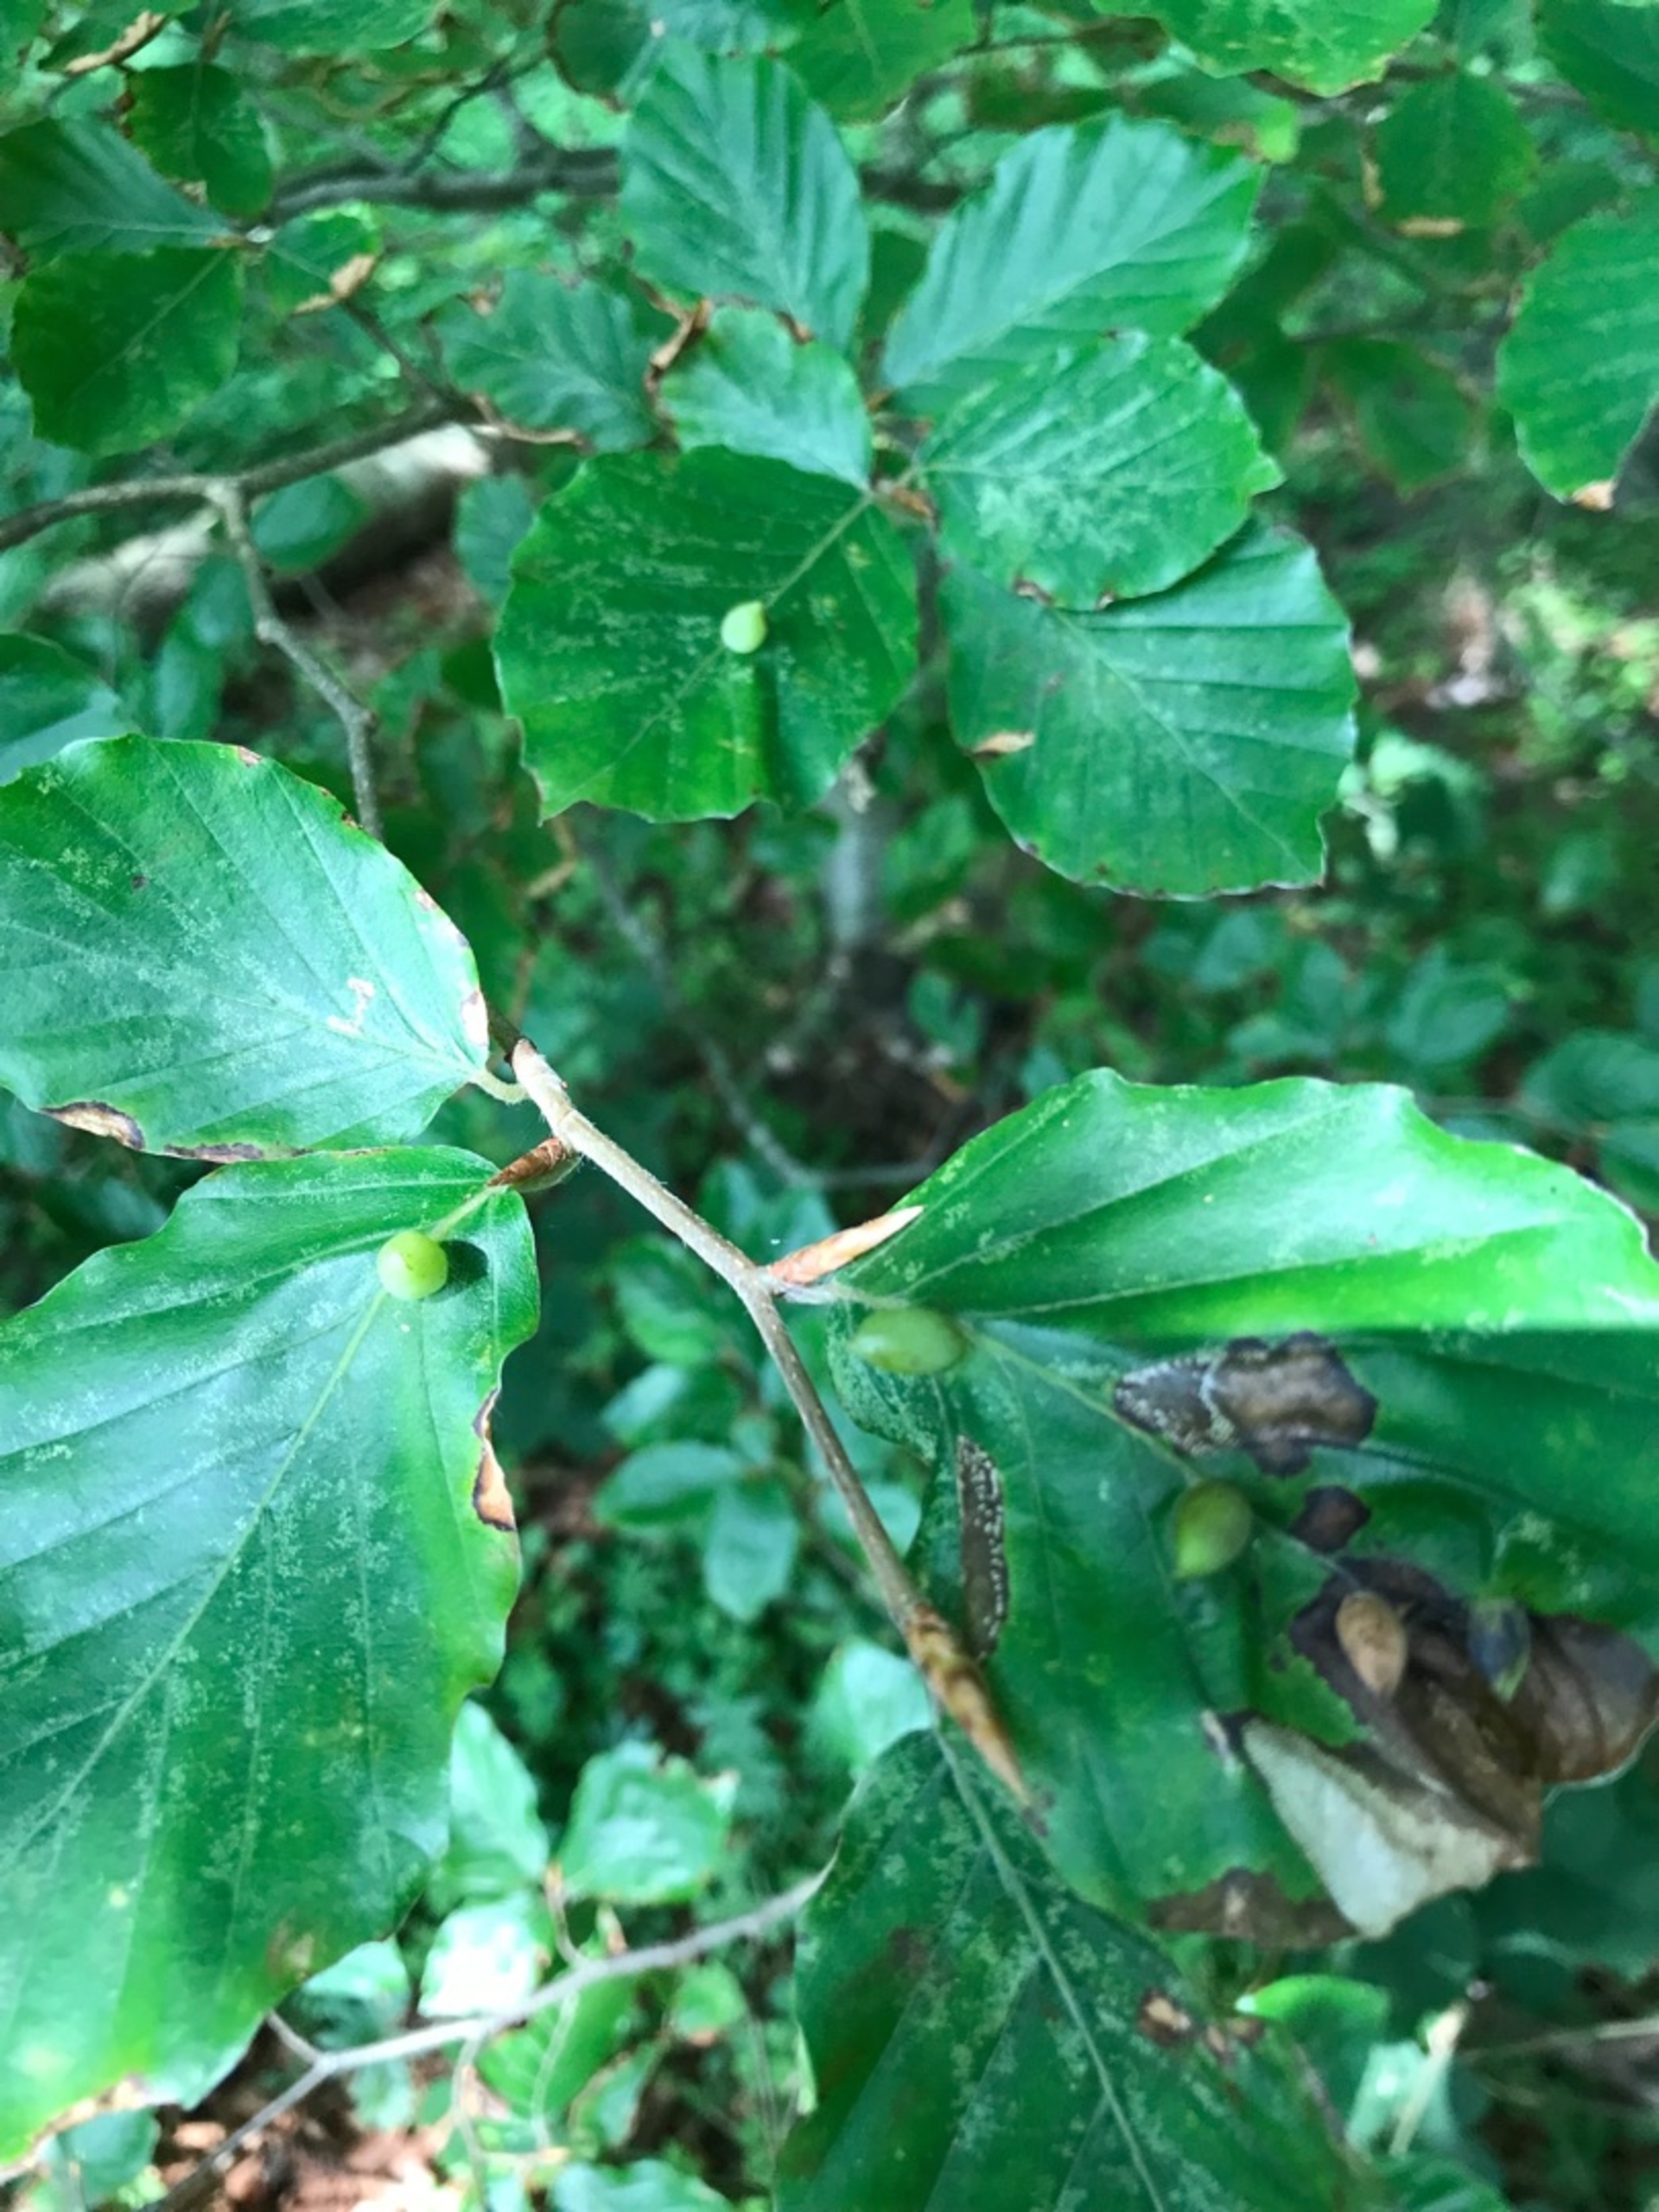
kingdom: Animalia
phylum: Arthropoda
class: Insecta
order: Diptera
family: Cecidomyiidae
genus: Mikiola
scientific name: Mikiola fagi
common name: Bøgegalmyg
